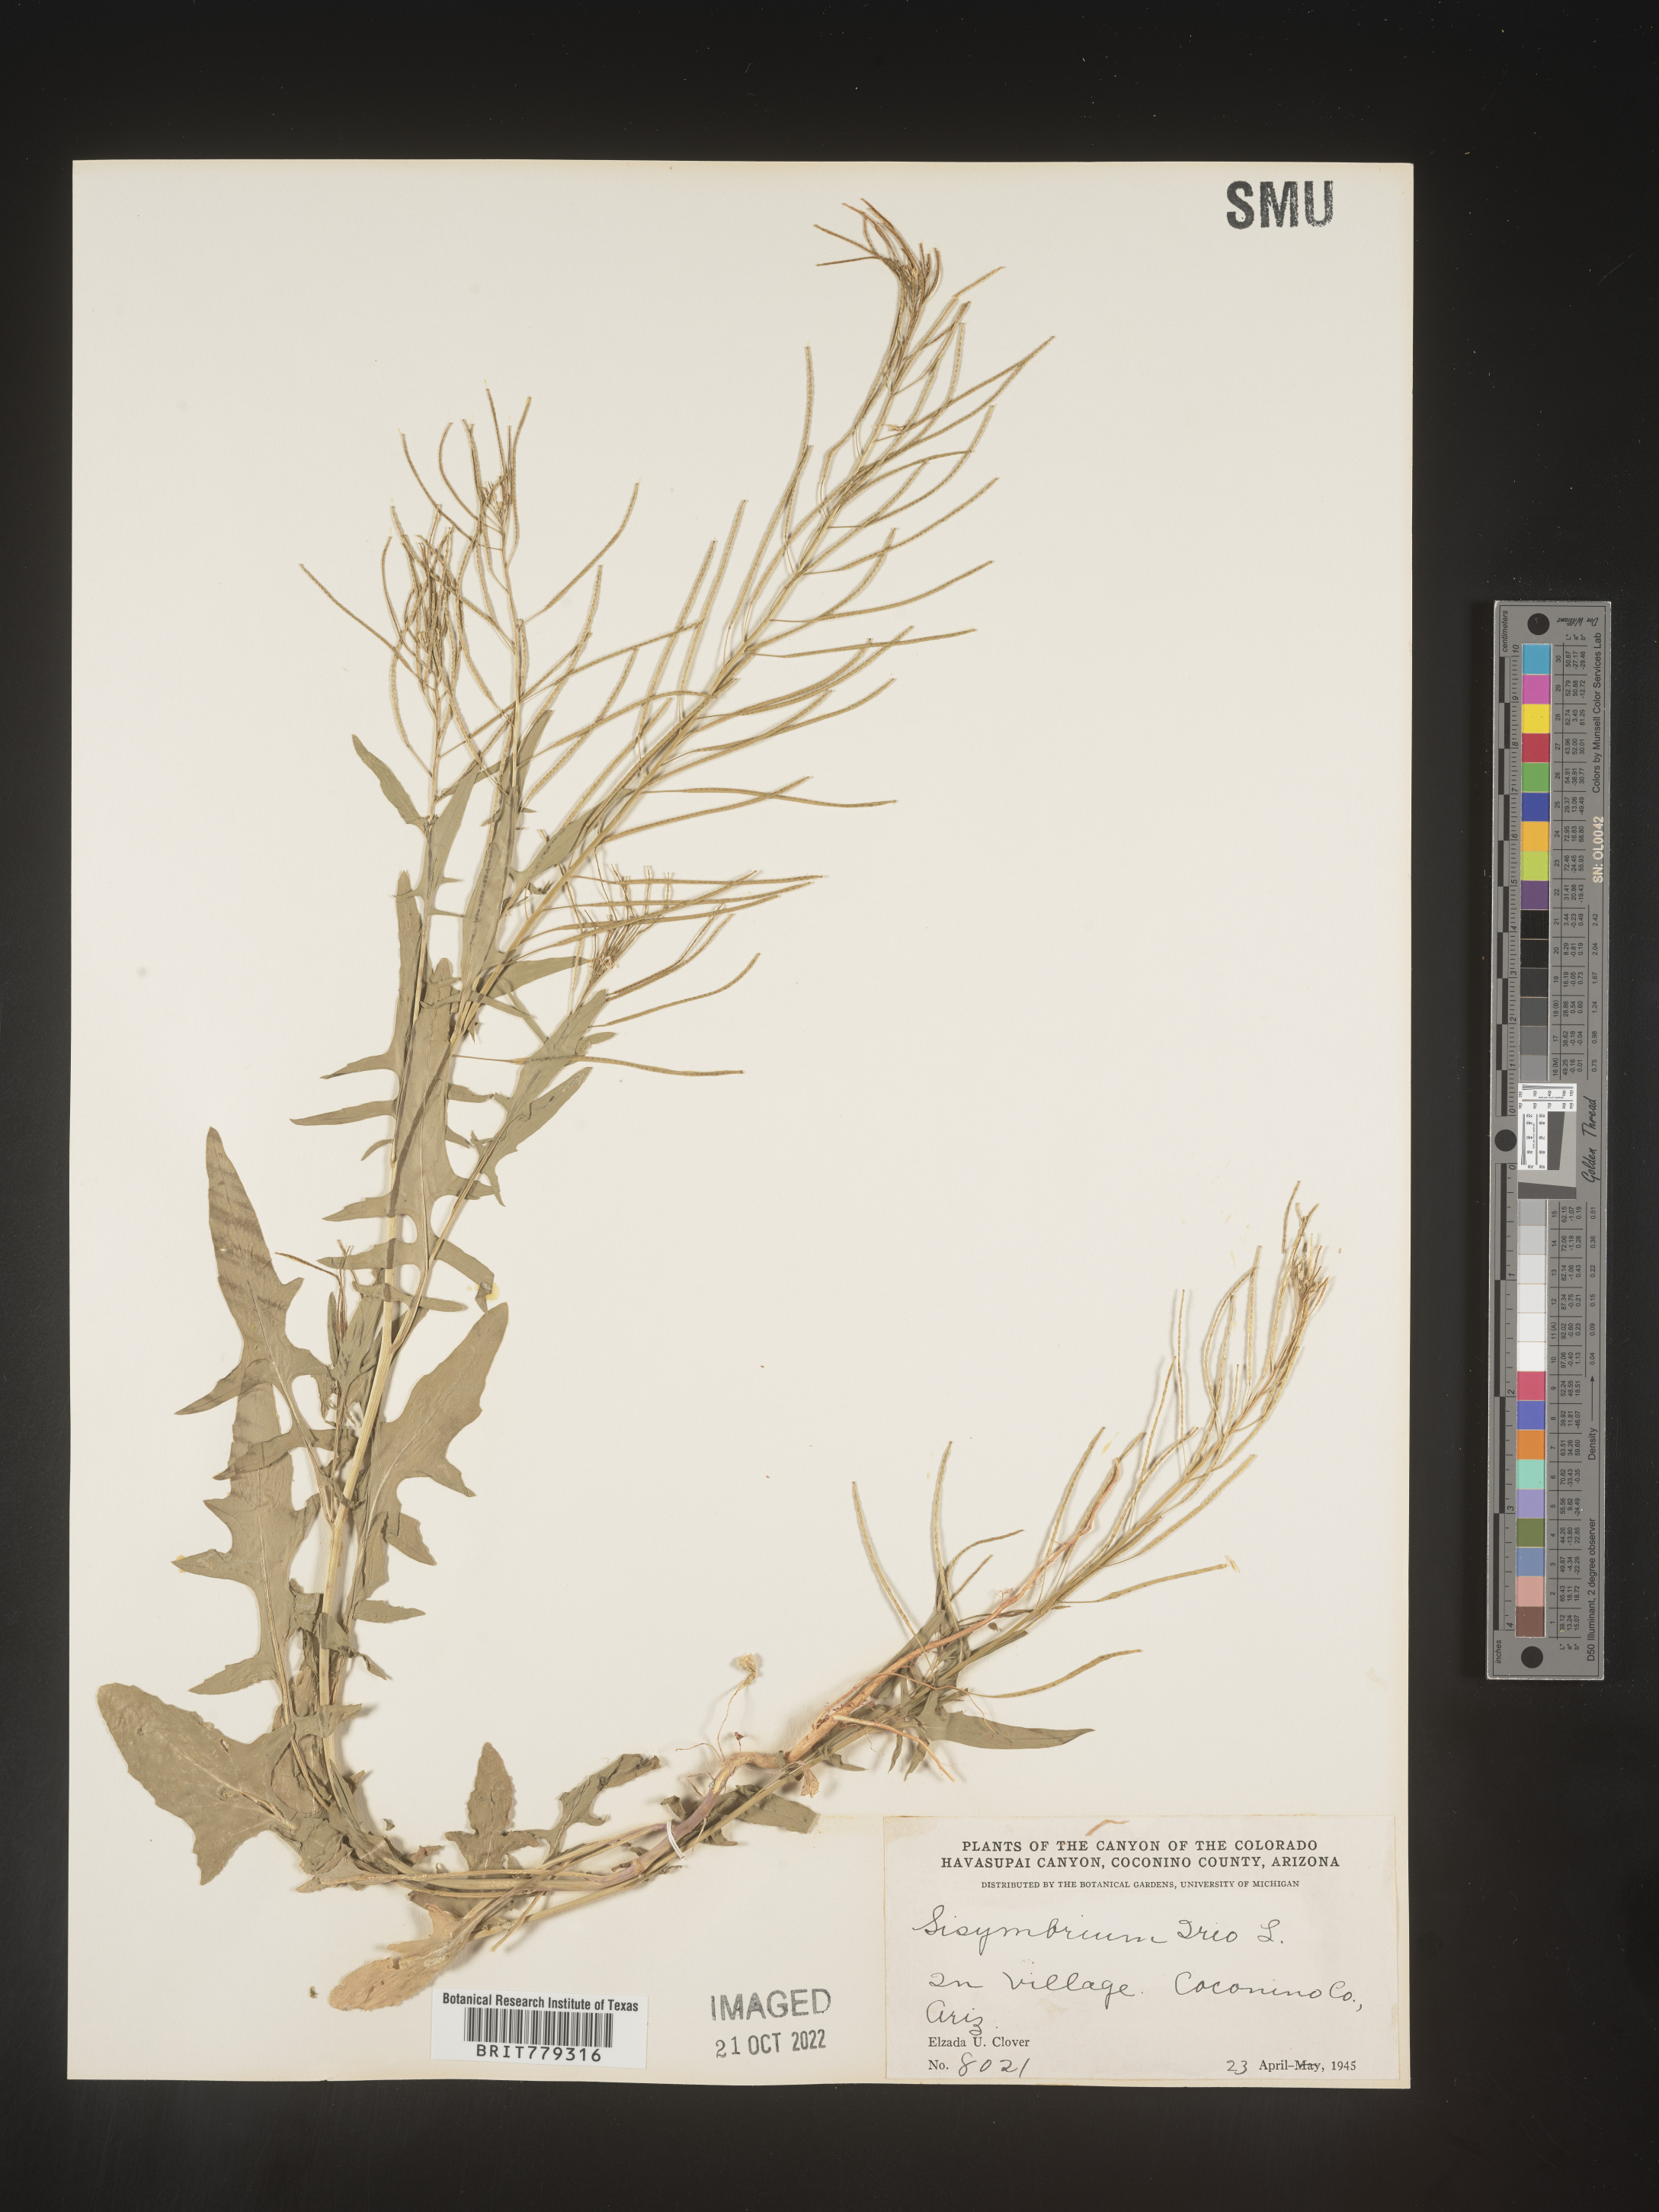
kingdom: Plantae
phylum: Tracheophyta
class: Magnoliopsida
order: Brassicales
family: Brassicaceae
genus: Sisymbrium
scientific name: Sisymbrium
